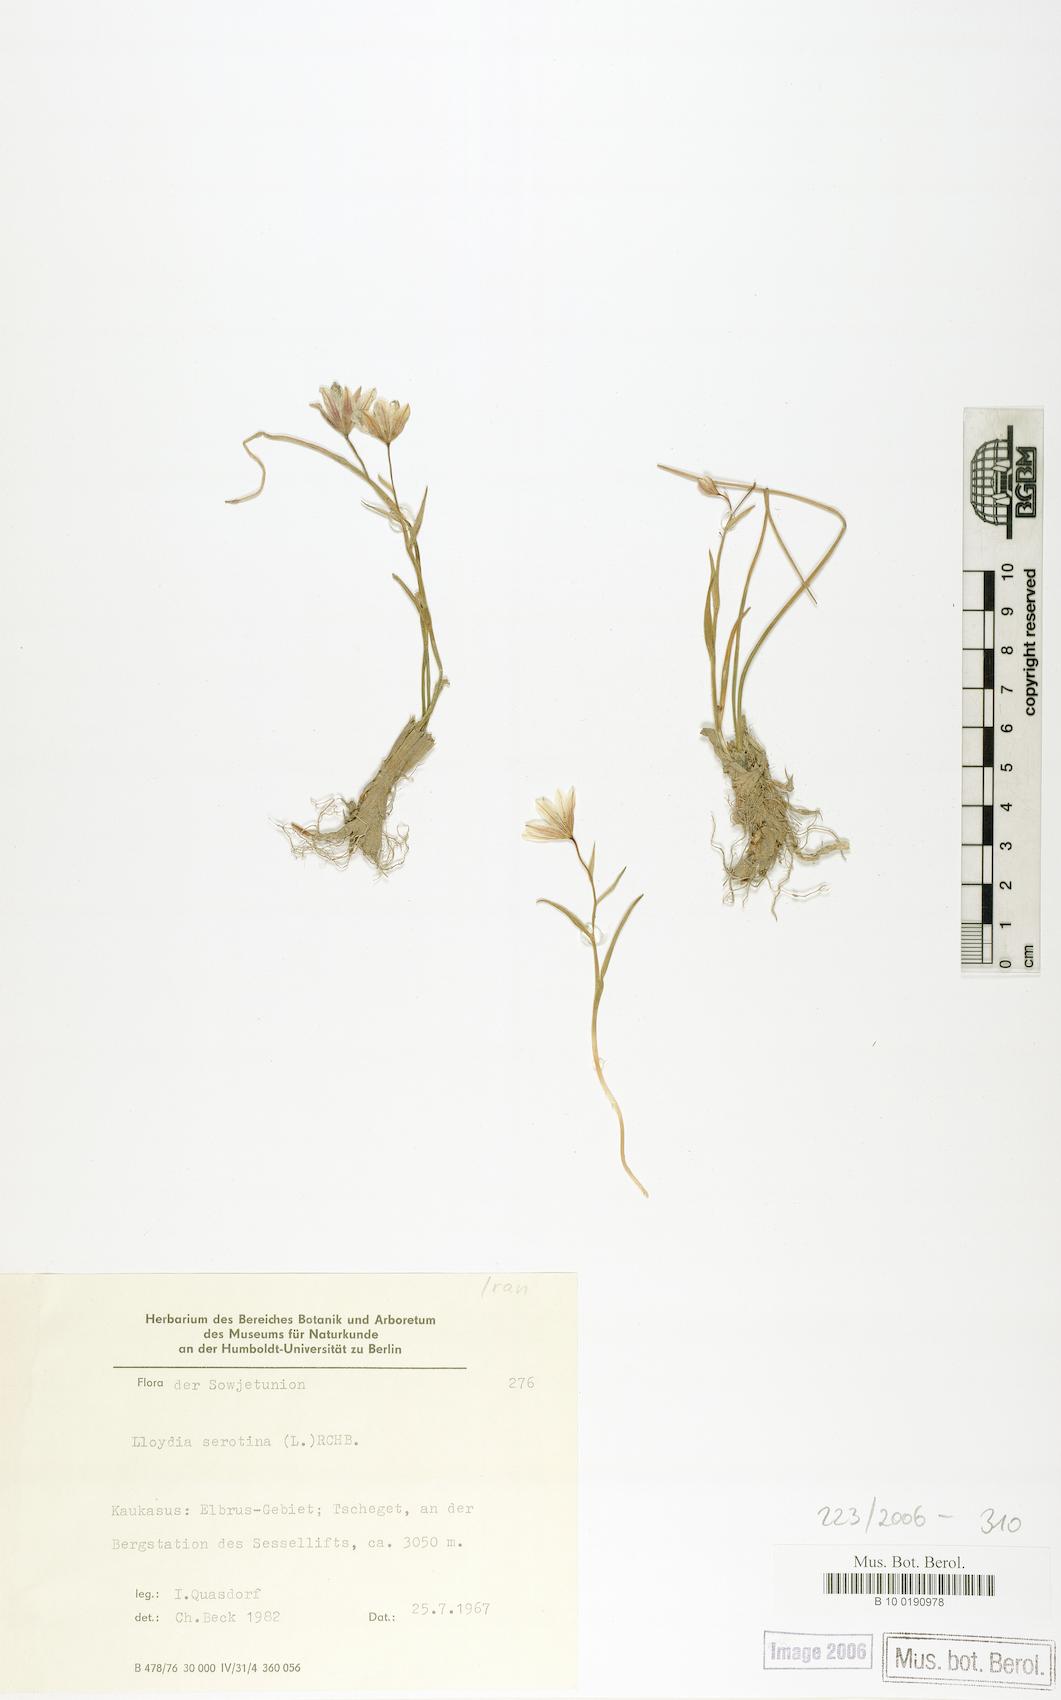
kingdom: Plantae
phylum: Tracheophyta
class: Liliopsida
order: Liliales
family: Liliaceae
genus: Gagea
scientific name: Gagea serotina
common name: Snowdon lily
